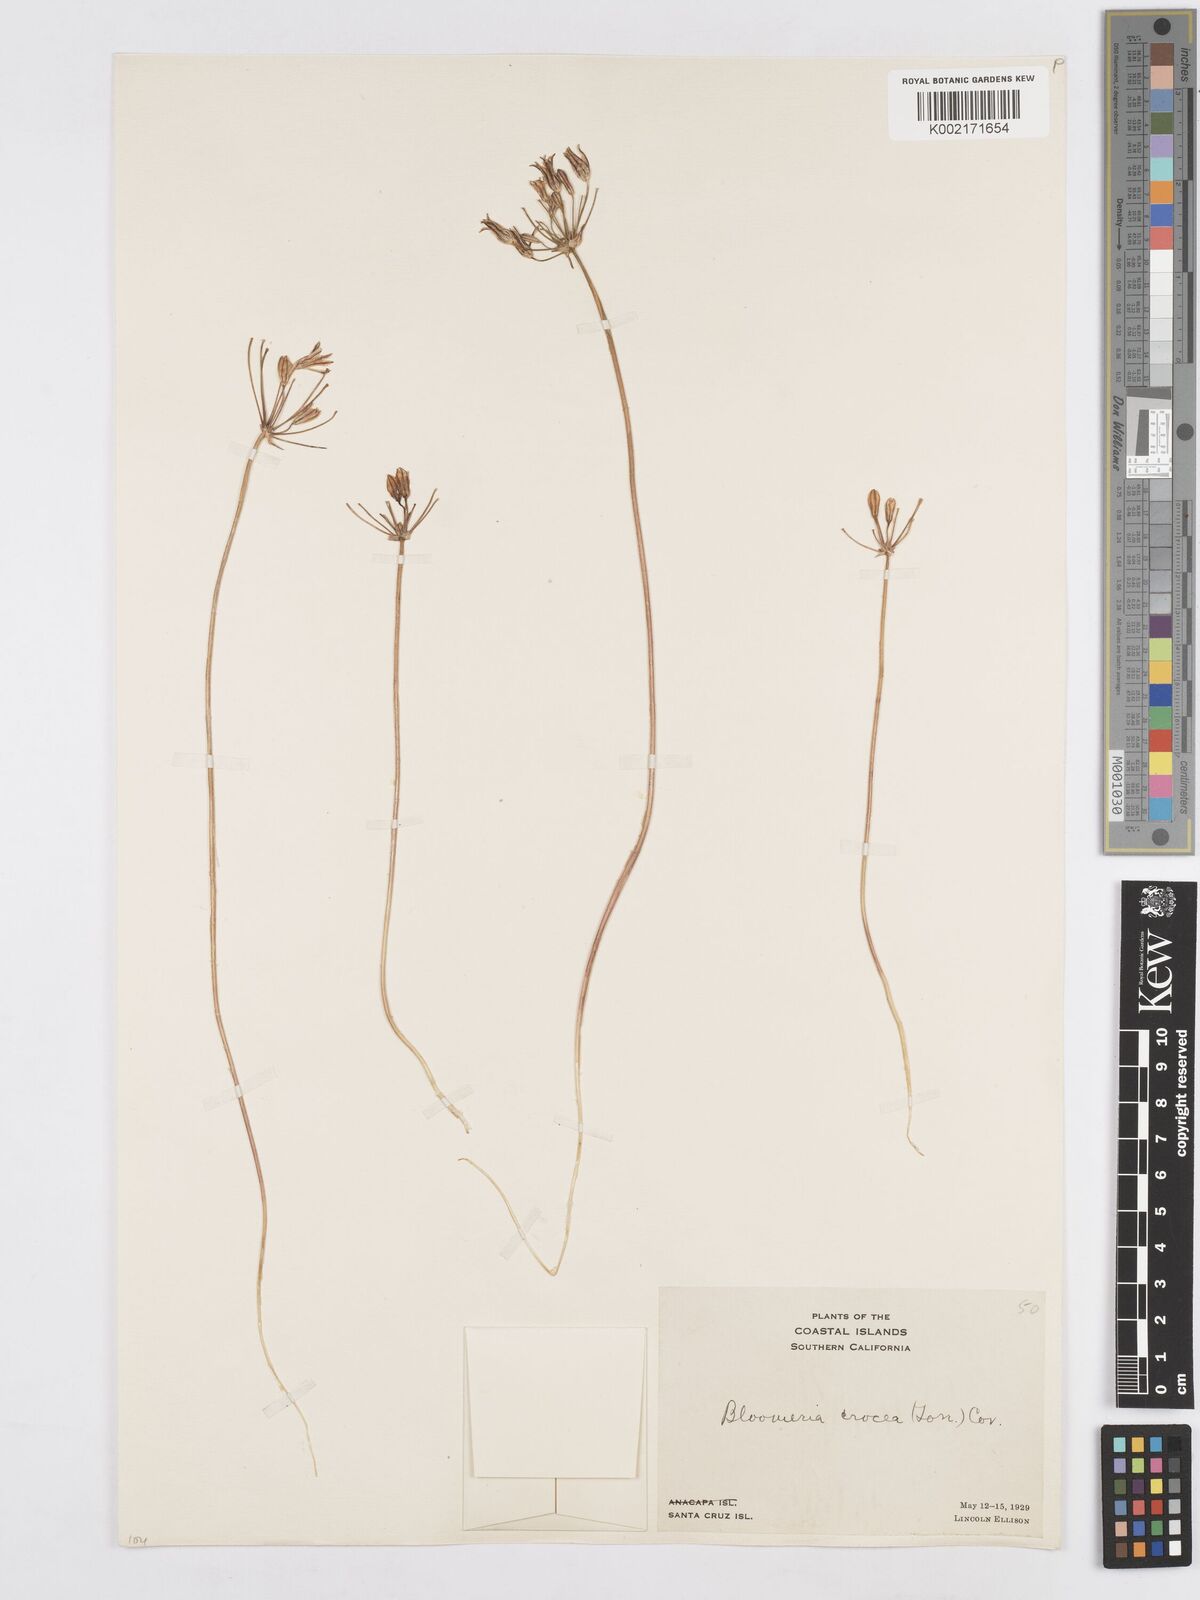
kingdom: Plantae
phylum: Tracheophyta
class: Liliopsida
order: Asparagales
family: Asparagaceae
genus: Bloomeria
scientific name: Bloomeria crocea
